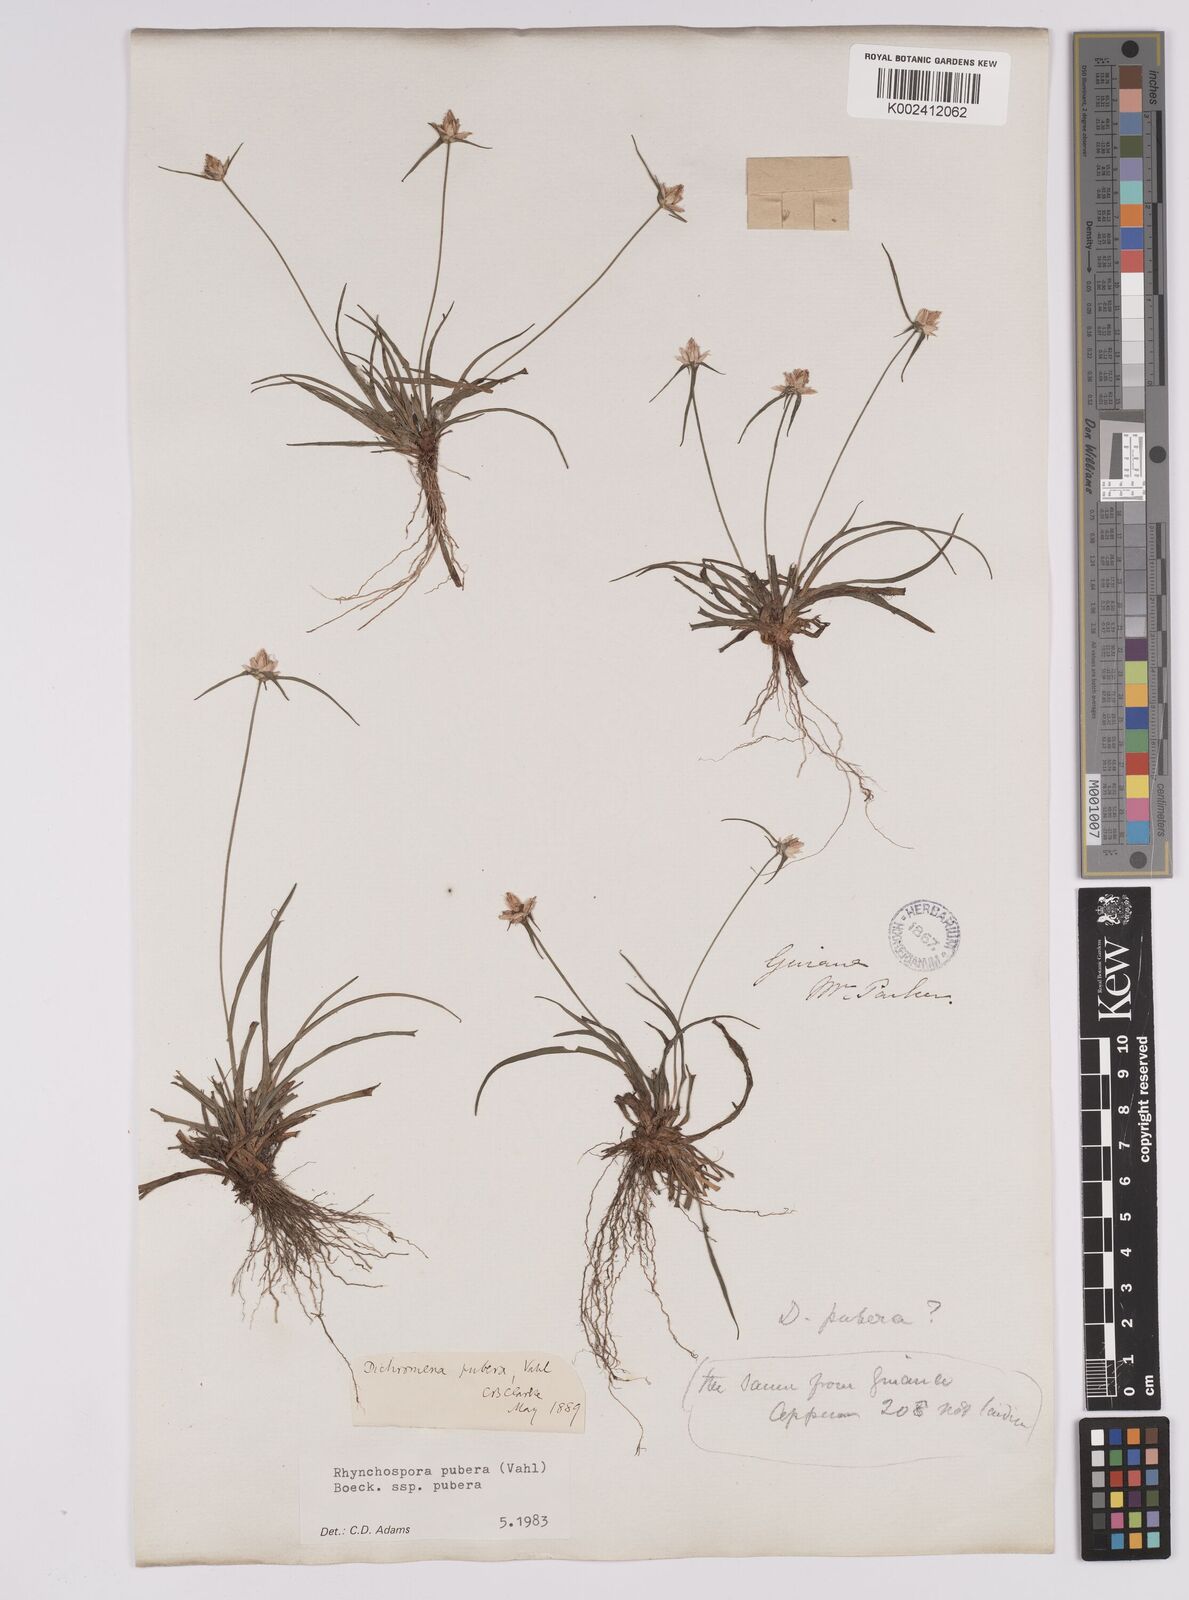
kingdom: Plantae
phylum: Tracheophyta
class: Liliopsida
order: Poales
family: Cyperaceae
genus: Rhynchospora
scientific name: Rhynchospora pubera
